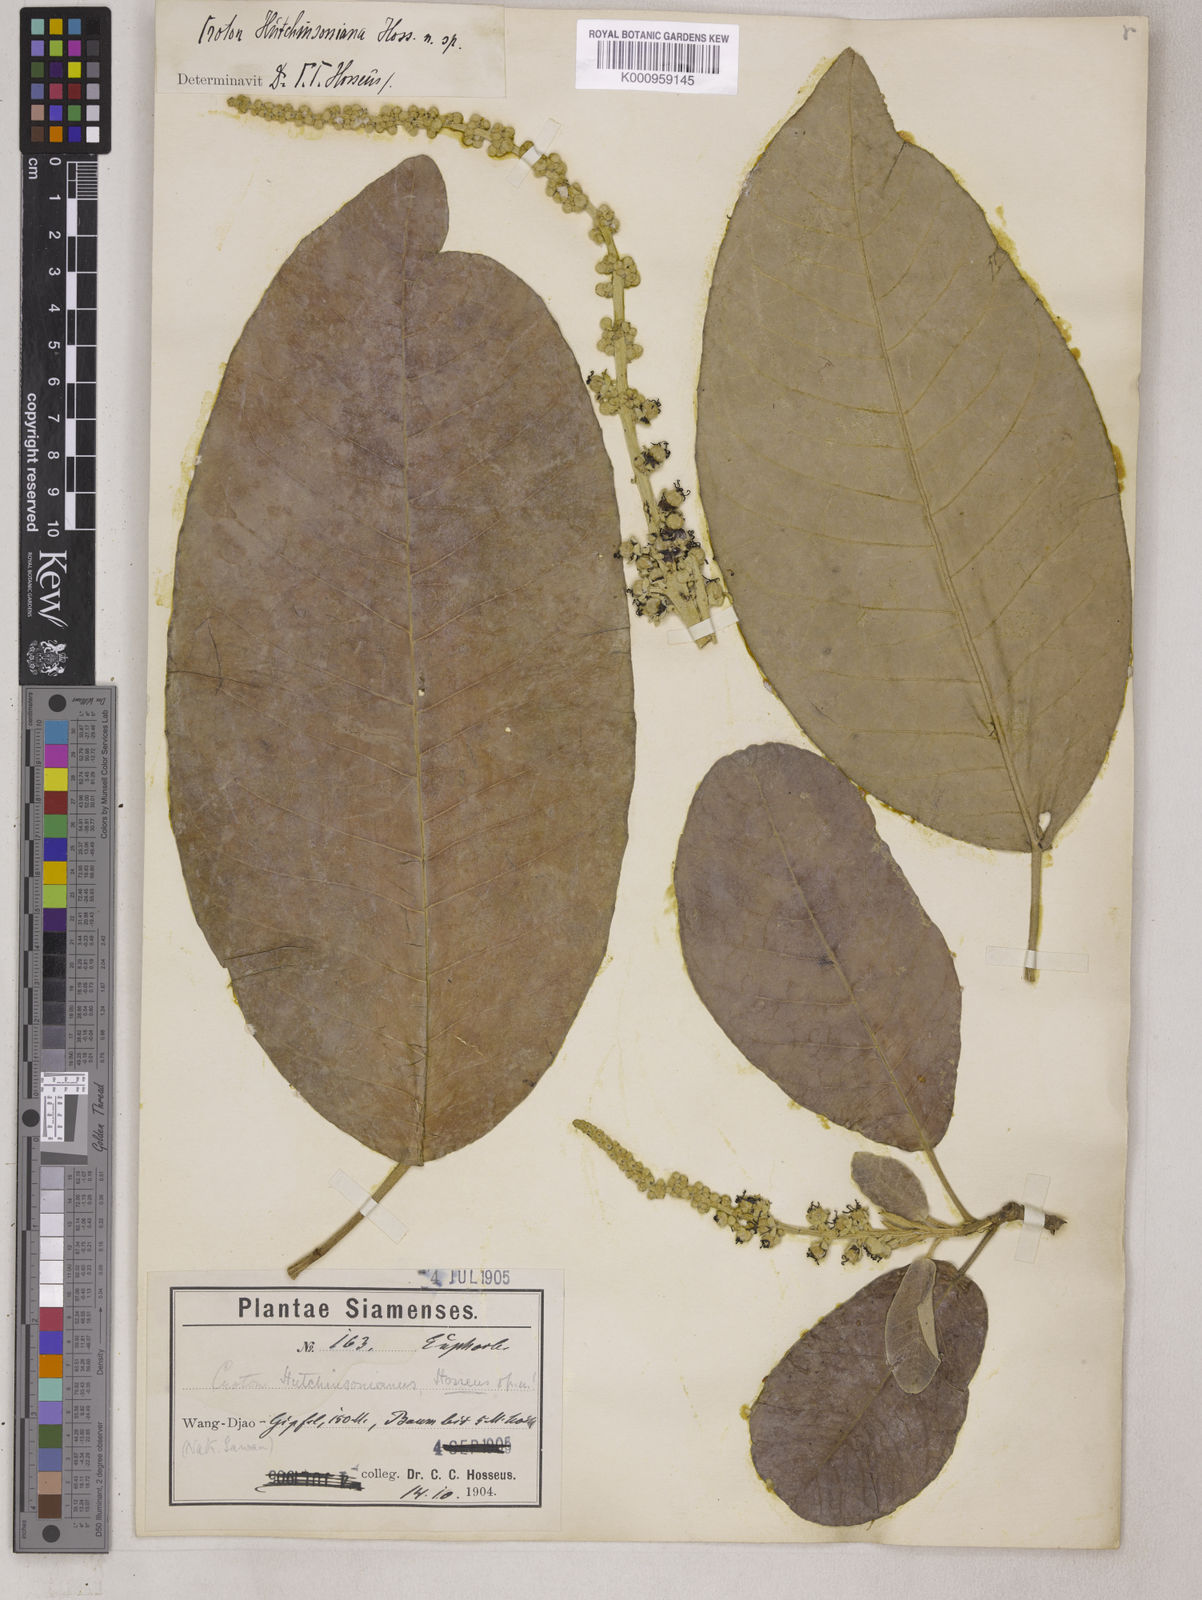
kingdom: Plantae
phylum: Tracheophyta
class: Magnoliopsida
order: Malpighiales
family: Euphorbiaceae
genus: Croton
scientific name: Croton hutchinsonianus
